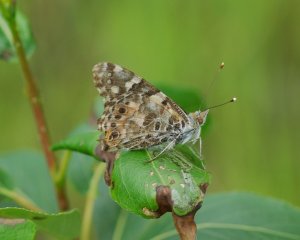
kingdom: Animalia
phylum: Arthropoda
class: Insecta
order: Lepidoptera
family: Nymphalidae
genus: Vanessa
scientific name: Vanessa cardui
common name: Painted Lady
